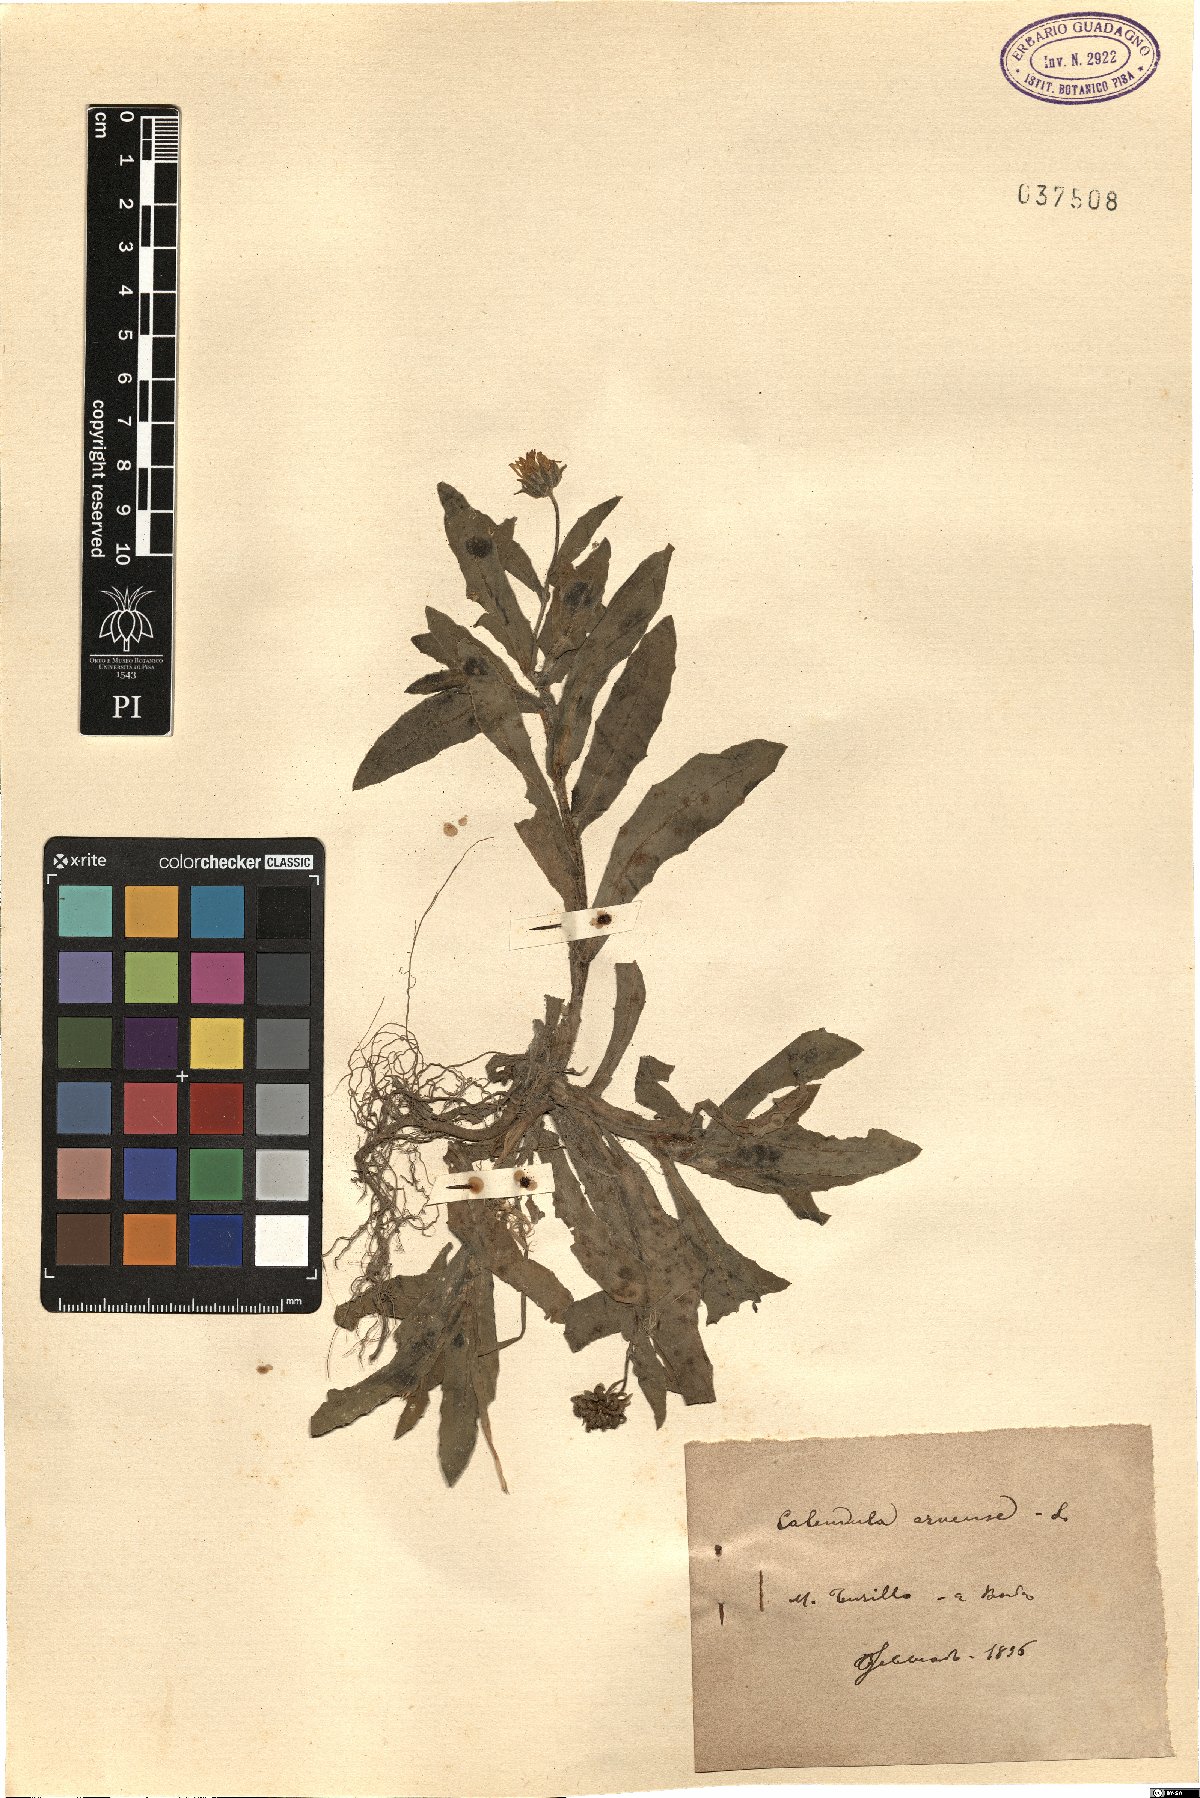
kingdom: Plantae
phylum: Tracheophyta
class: Magnoliopsida
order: Asterales
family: Asteraceae
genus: Calendula
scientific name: Calendula arvensis
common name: Field marigold
